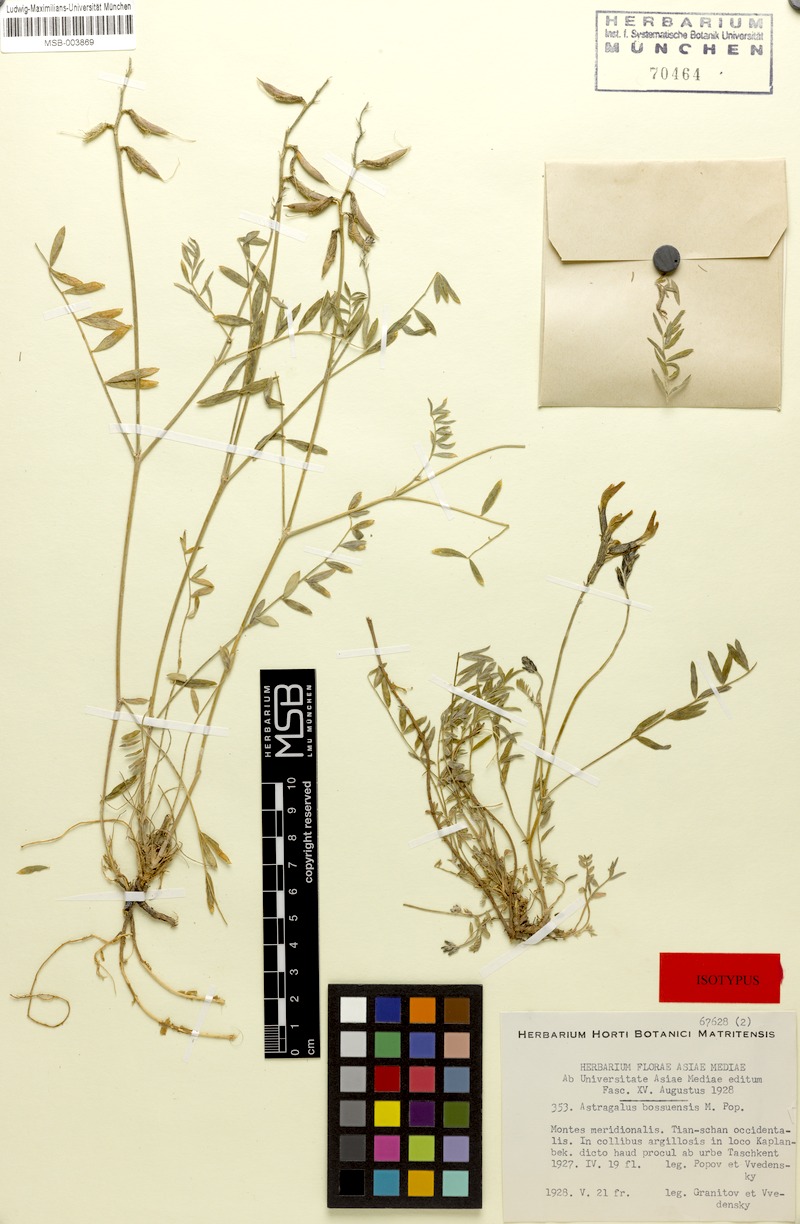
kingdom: Plantae
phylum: Tracheophyta
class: Magnoliopsida
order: Fabales
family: Fabaceae
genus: Astragalus
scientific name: Astragalus bossuensis
